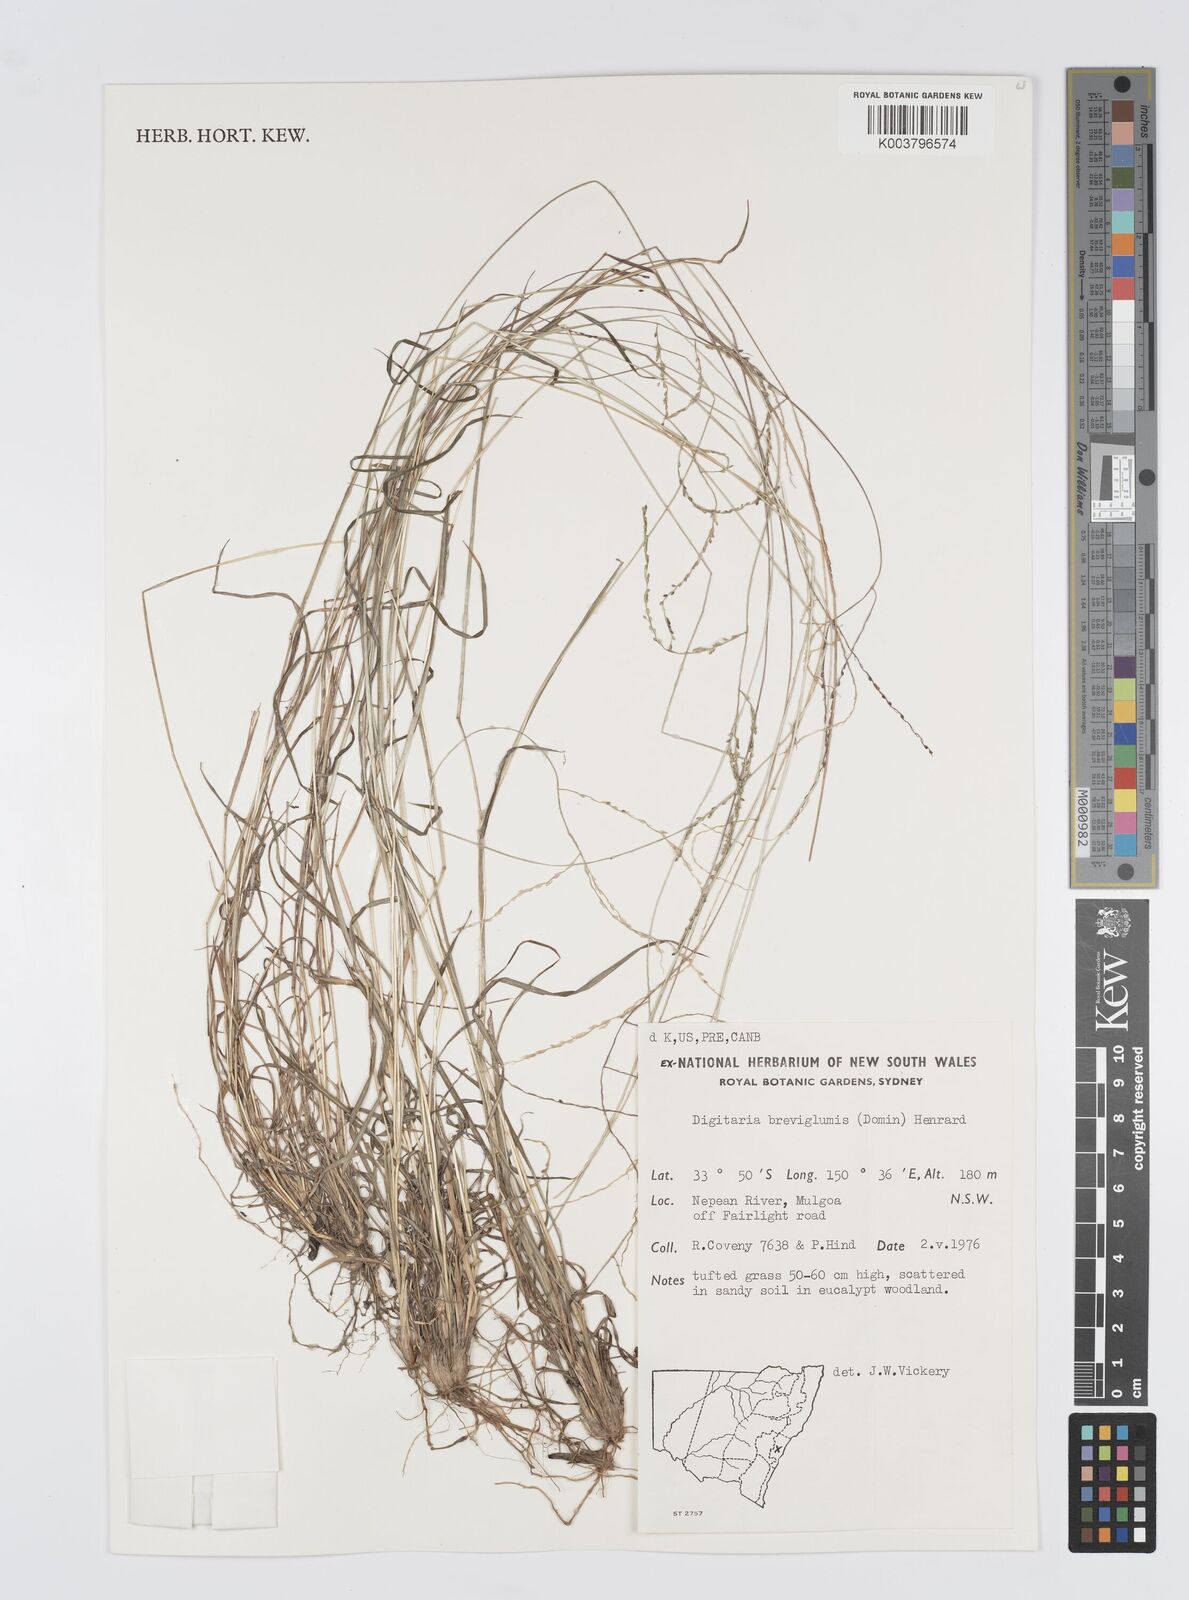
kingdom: Plantae
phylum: Tracheophyta
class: Liliopsida
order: Poales
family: Poaceae
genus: Digitaria
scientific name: Digitaria breviglumis
